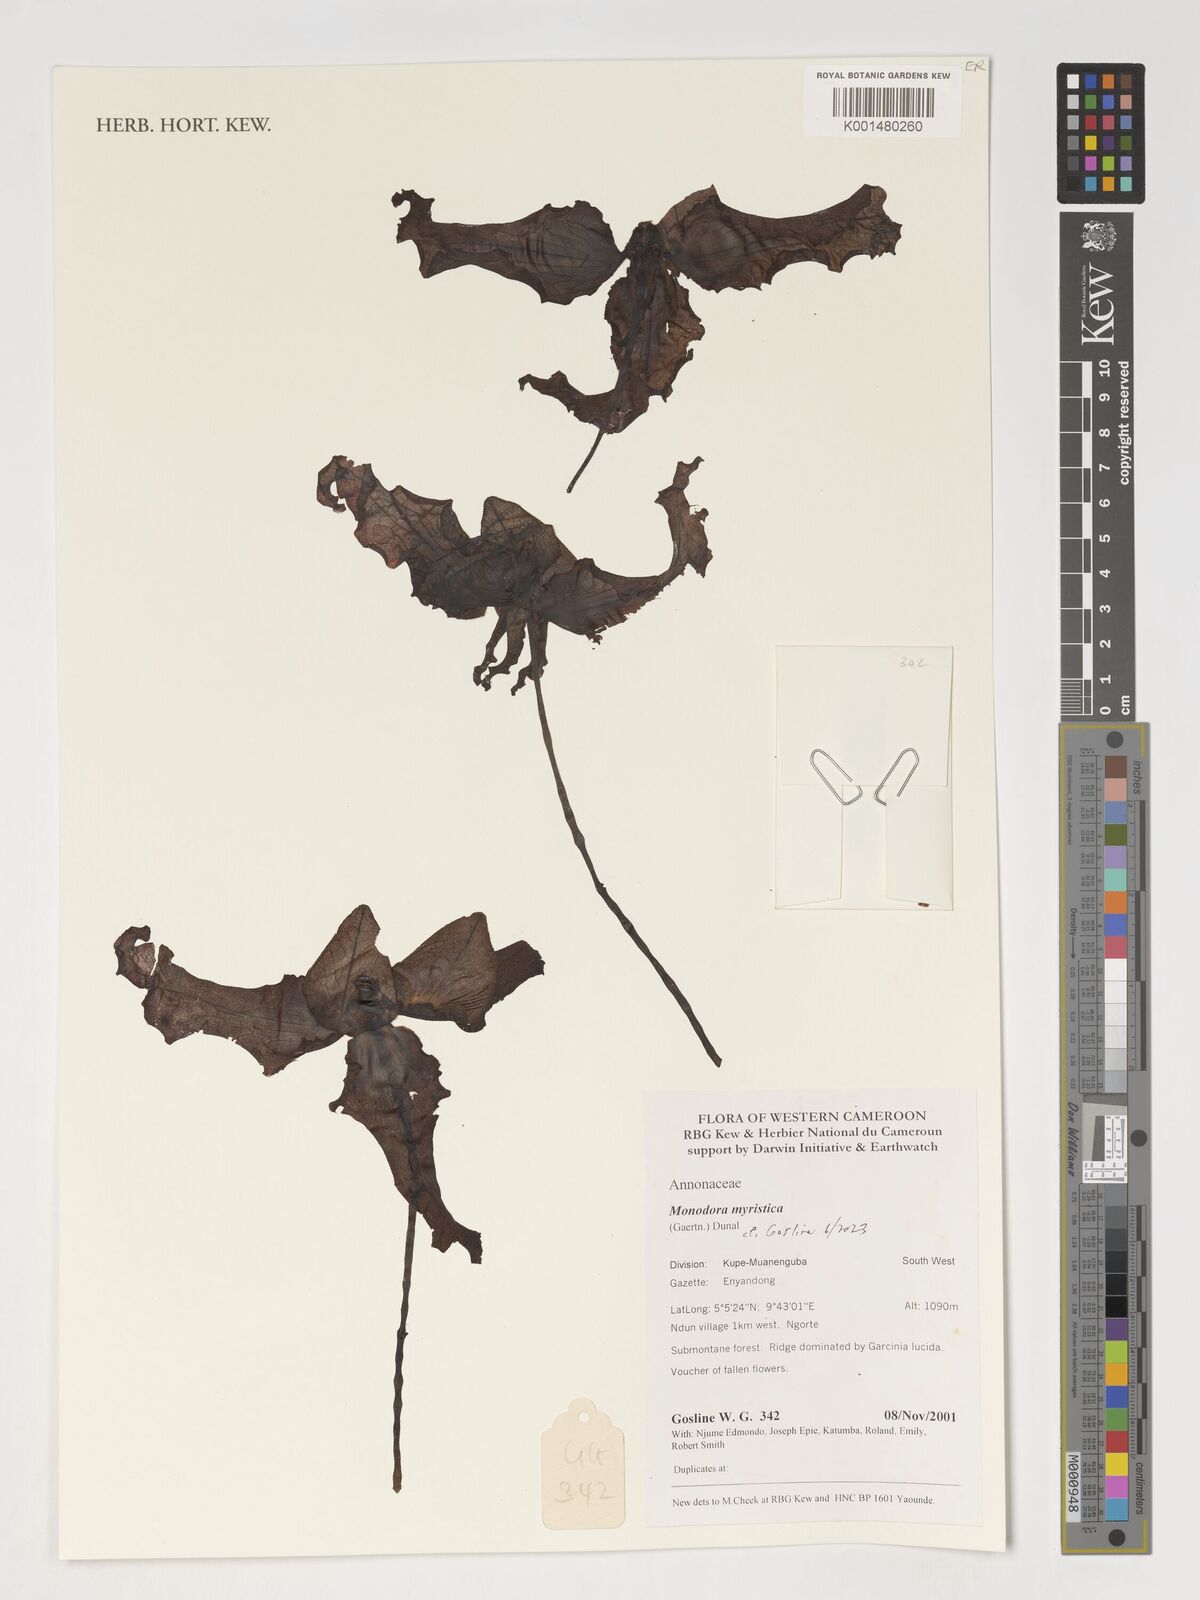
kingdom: Plantae
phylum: Tracheophyta
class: Magnoliopsida
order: Magnoliales
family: Annonaceae
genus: Monodora
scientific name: Monodora myristica
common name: African nutmeg
